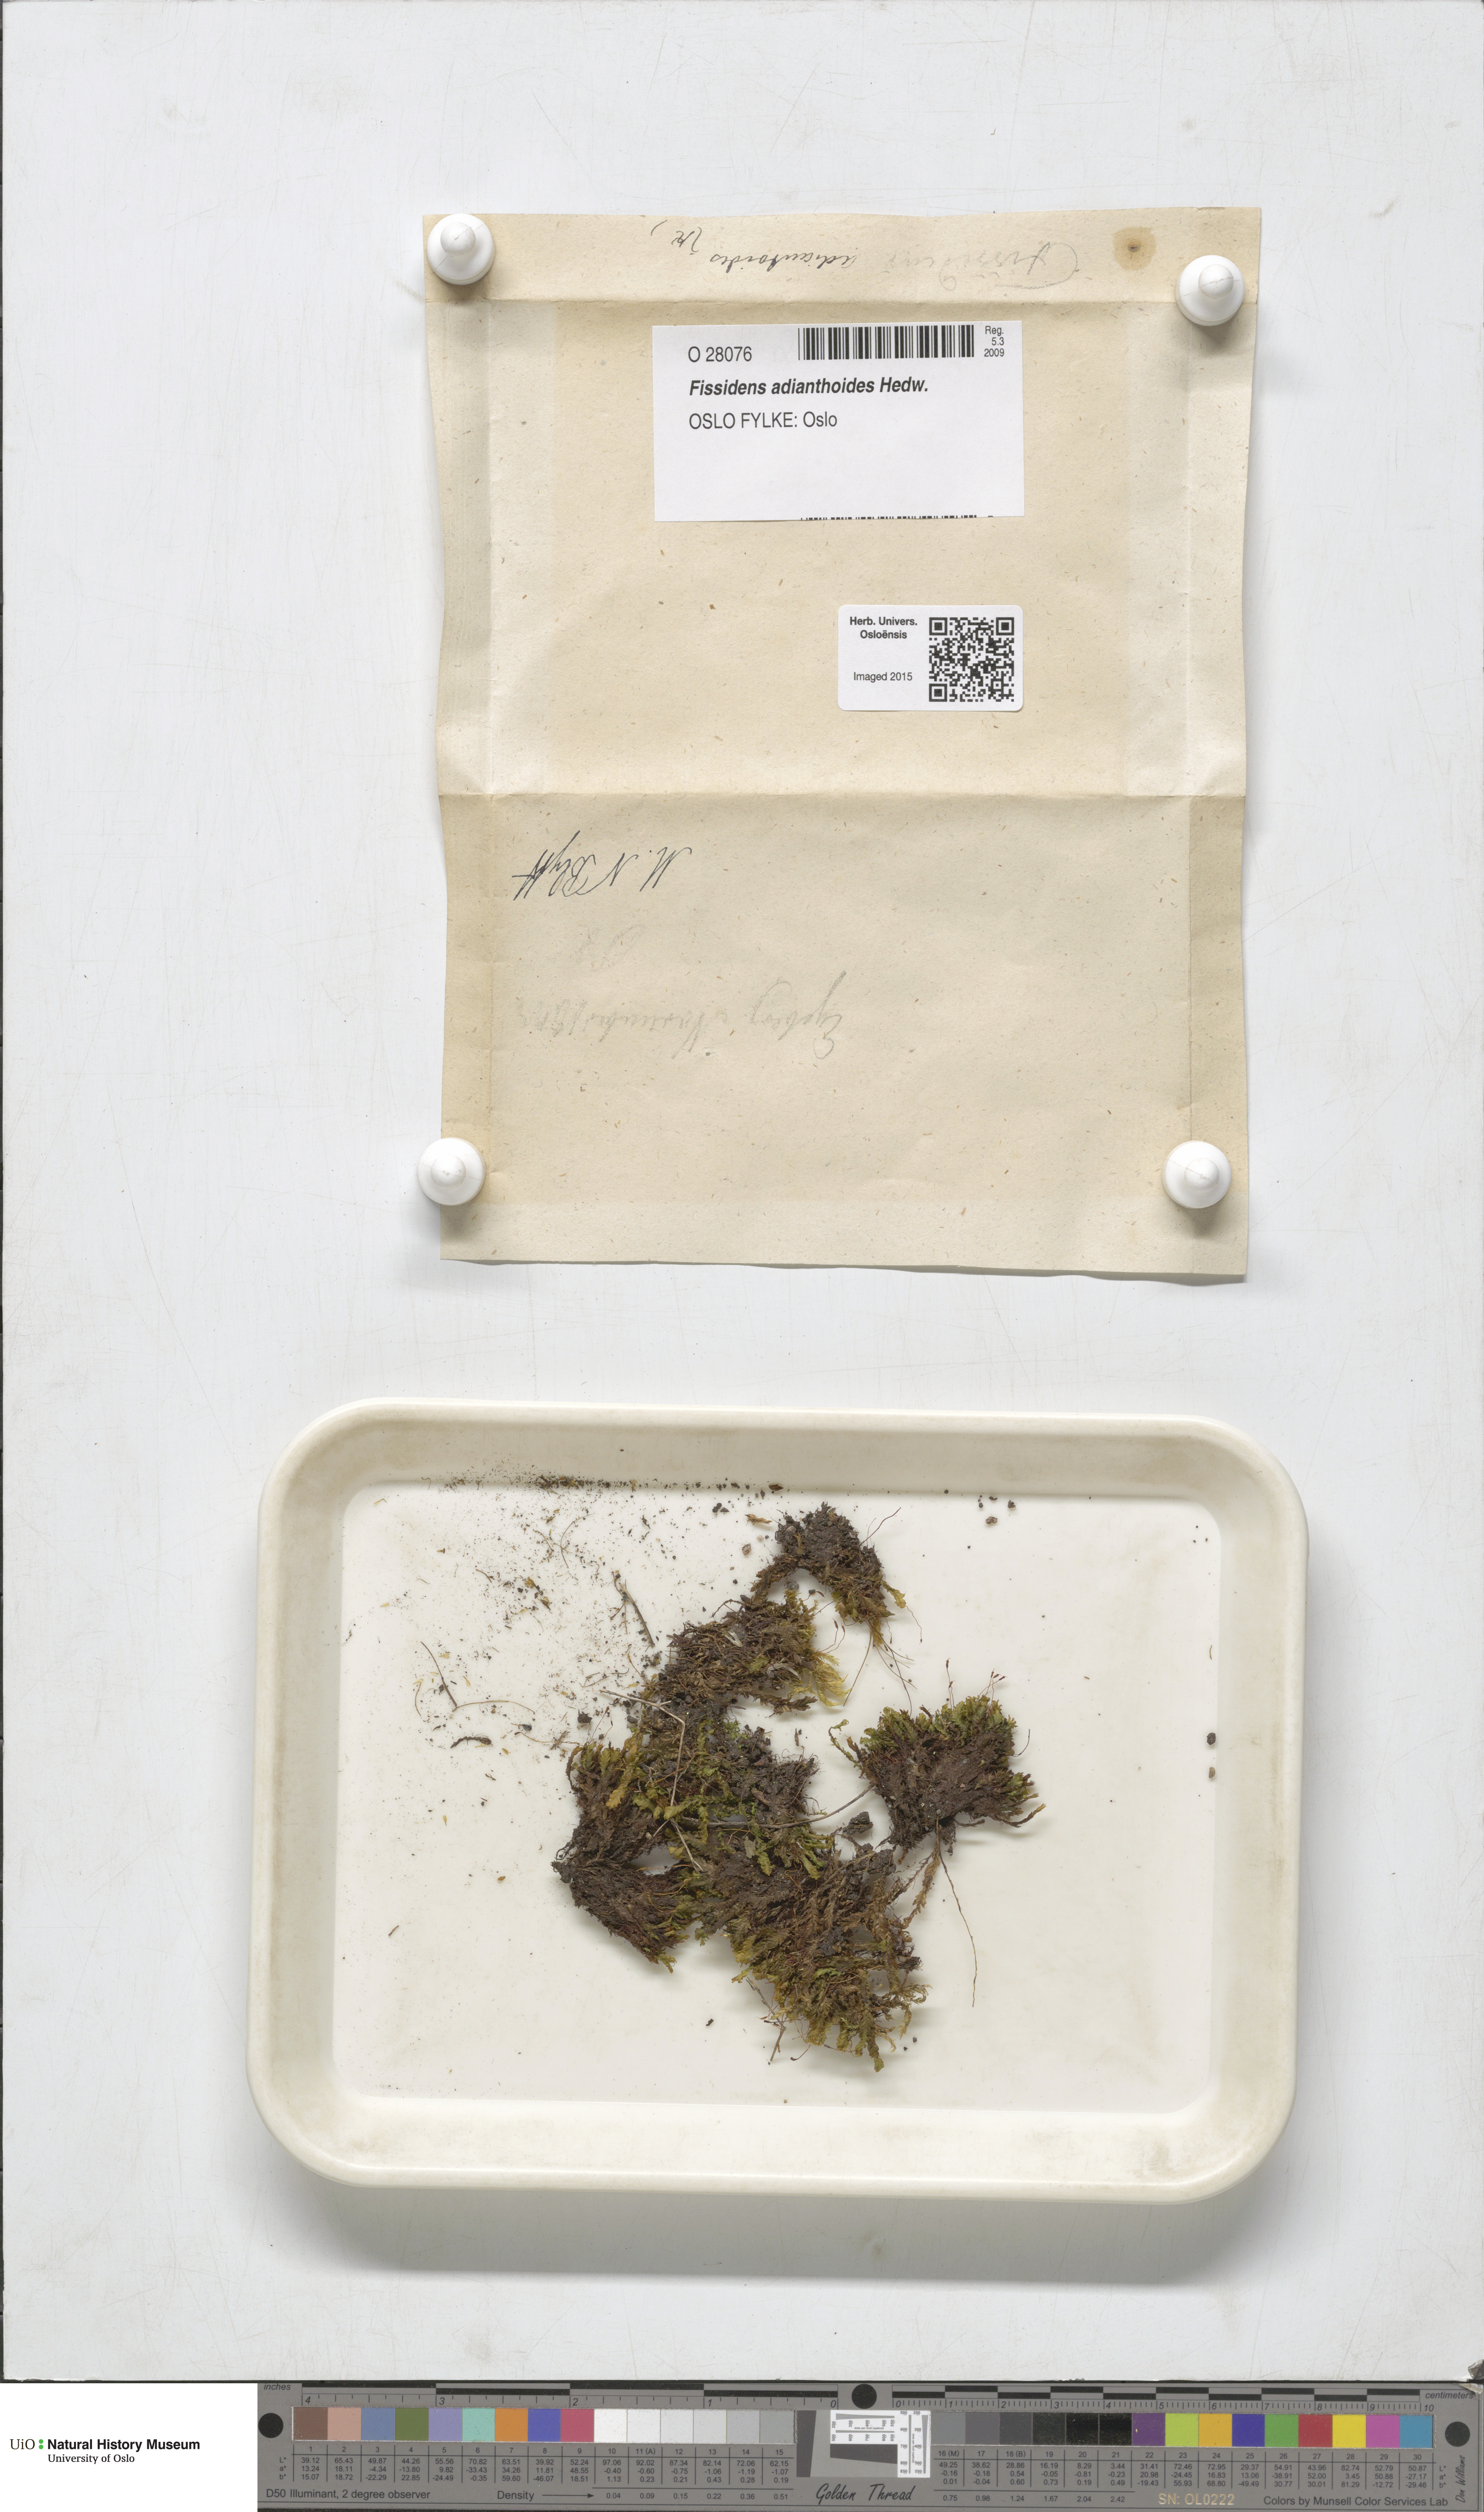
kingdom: Plantae
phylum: Bryophyta
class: Bryopsida
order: Dicranales
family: Fissidentaceae
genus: Fissidens
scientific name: Fissidens adianthoides
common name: Maidenhair pocket moss
